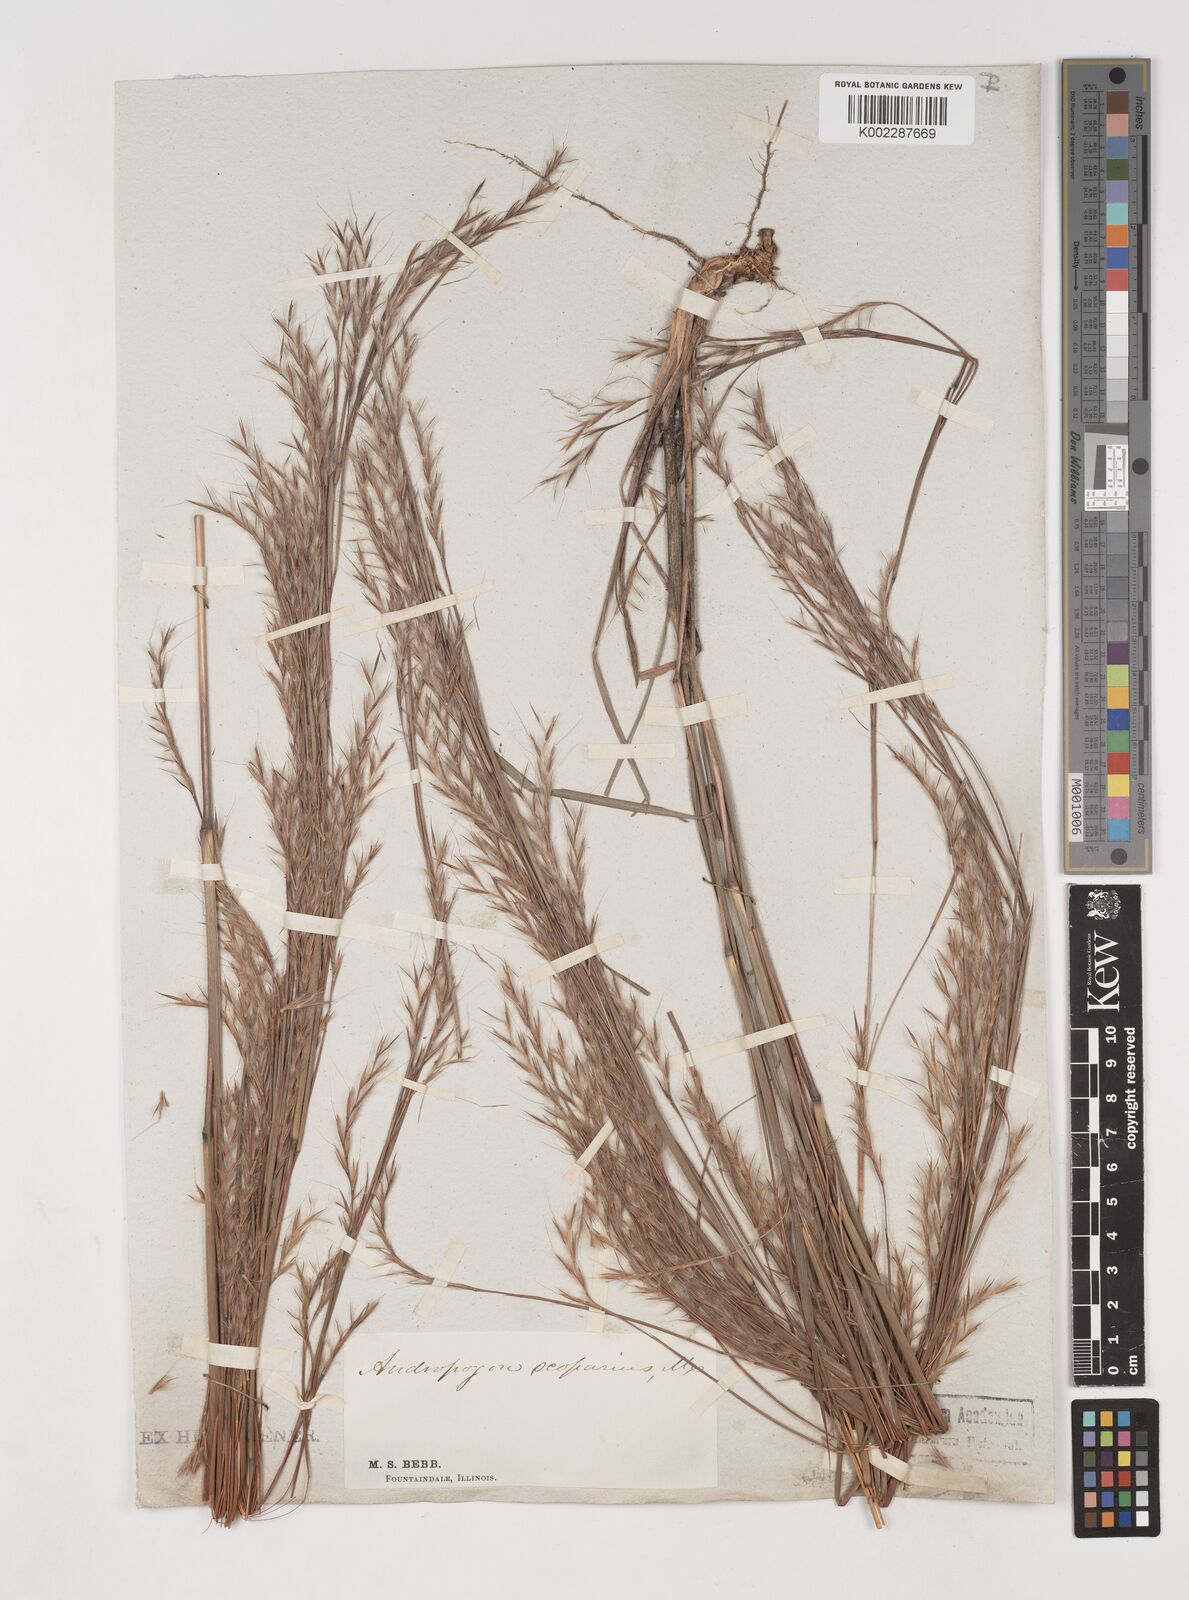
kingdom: Plantae
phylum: Tracheophyta
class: Liliopsida
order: Poales
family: Poaceae
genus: Schizachyrium
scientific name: Schizachyrium scoparium
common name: Little bluestem
